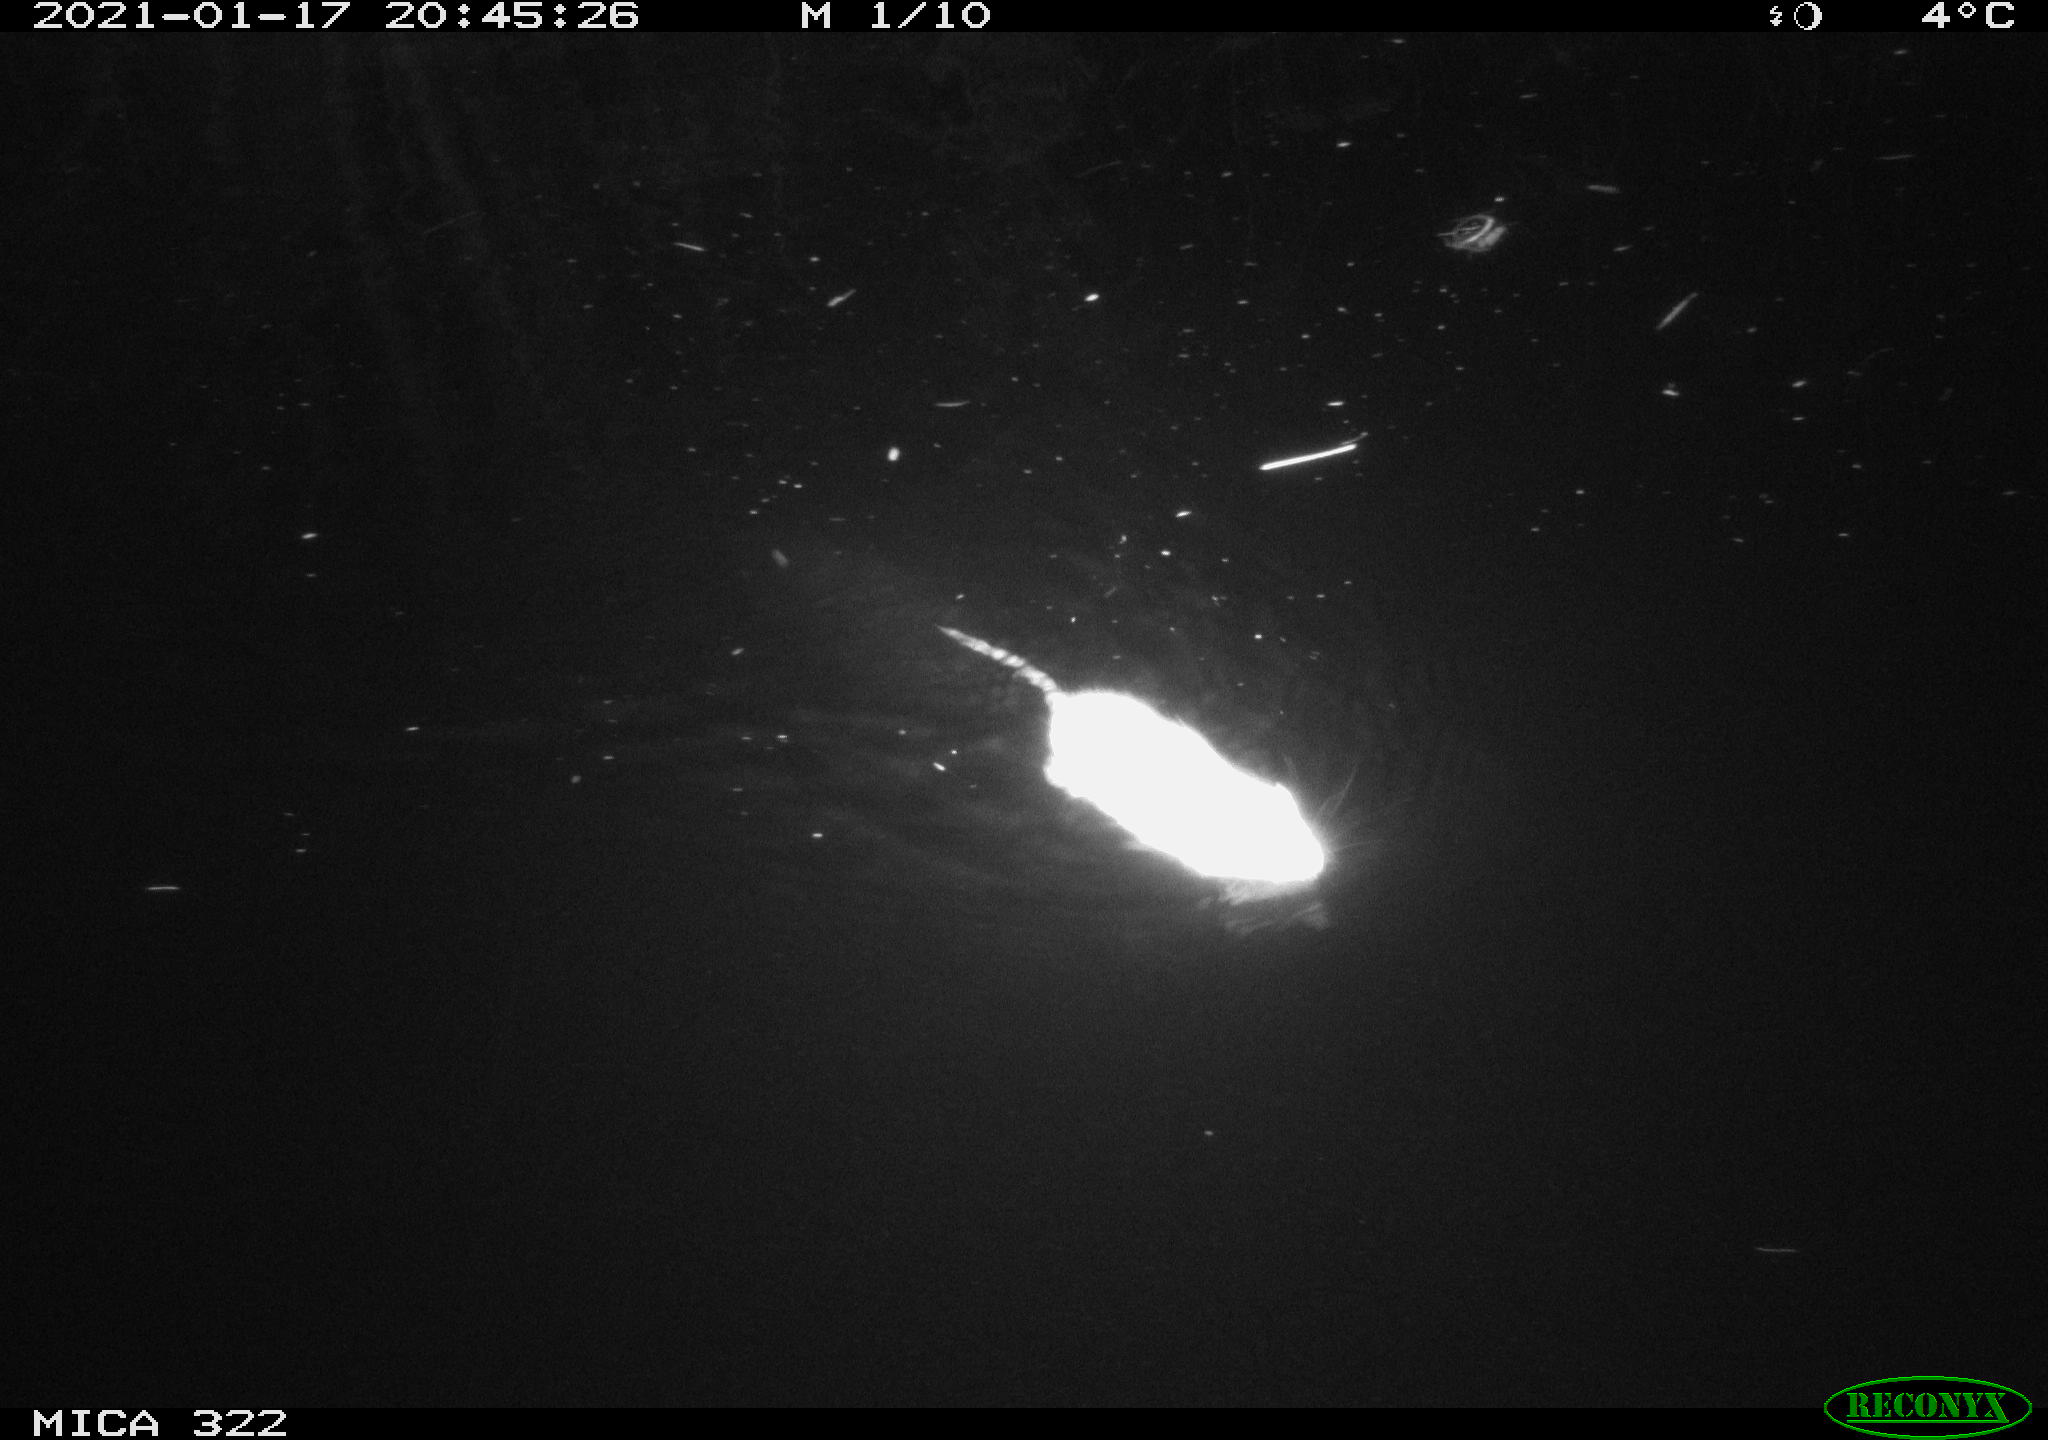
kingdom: Animalia
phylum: Chordata
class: Mammalia
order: Rodentia
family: Muridae
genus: Rattus
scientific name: Rattus norvegicus
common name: Brown rat
